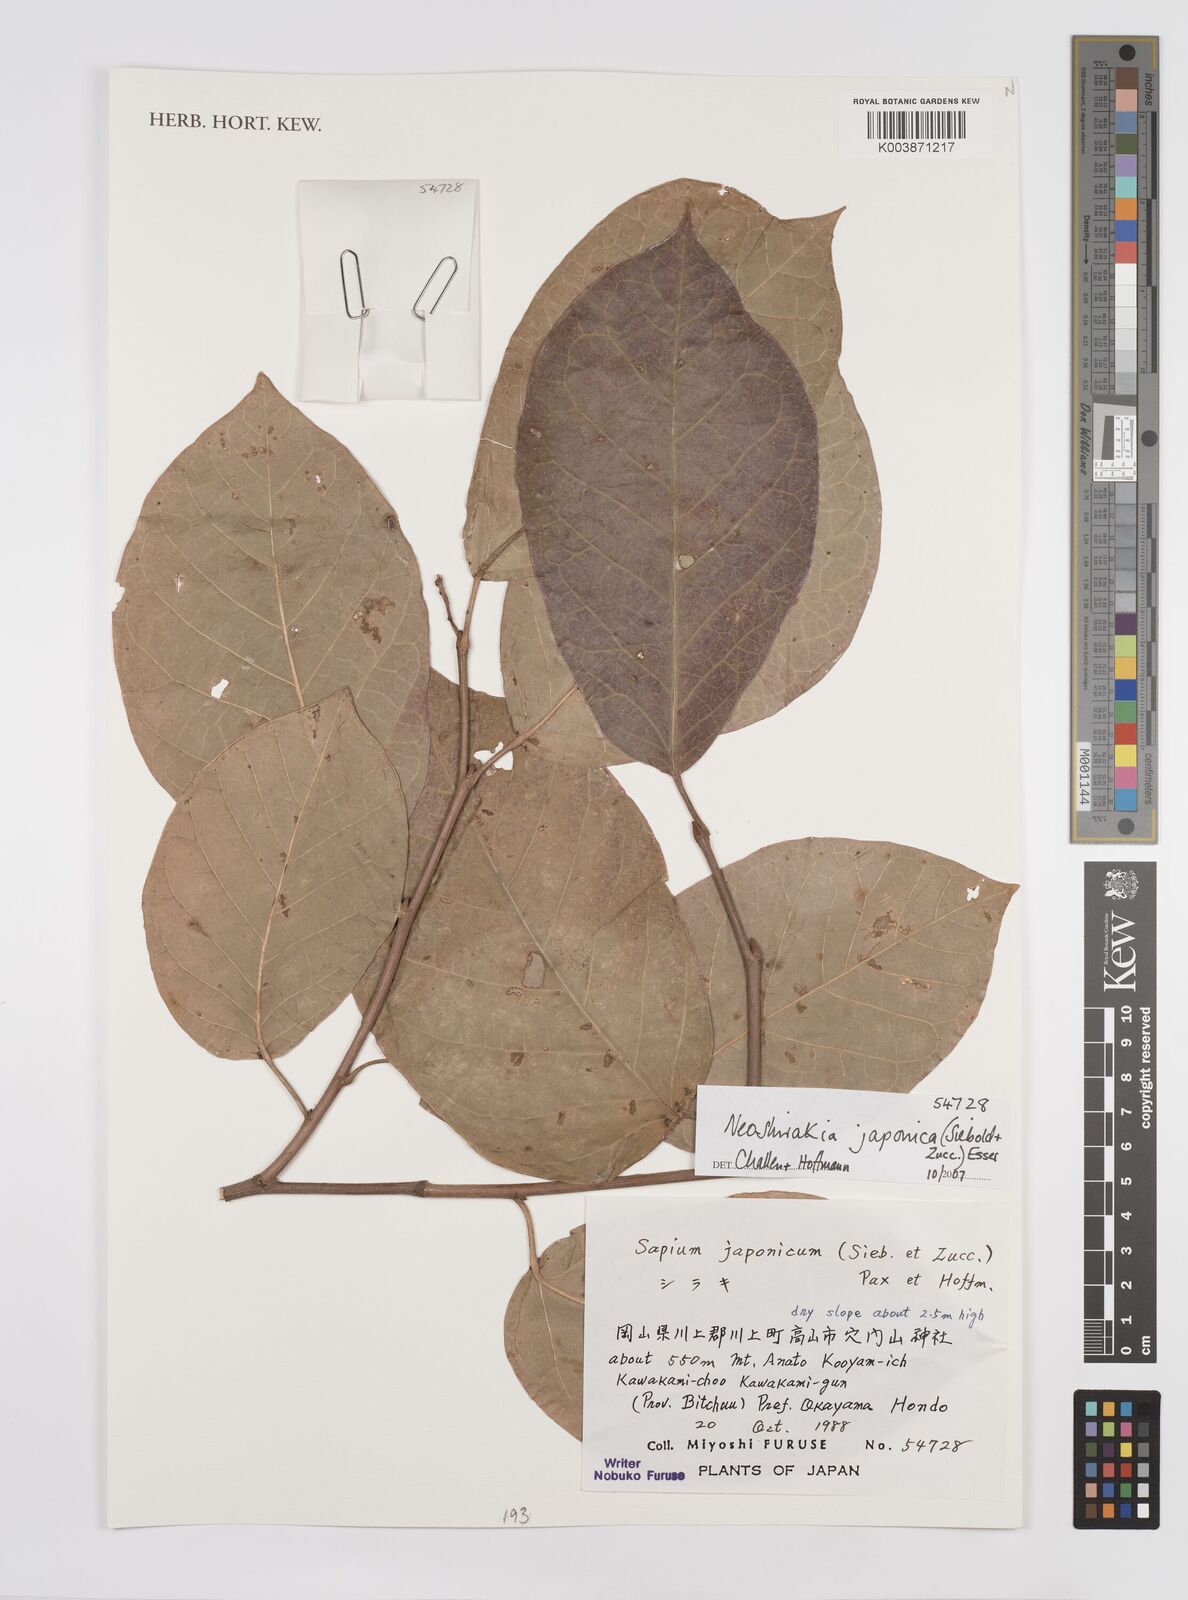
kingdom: Plantae
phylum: Tracheophyta
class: Magnoliopsida
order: Malpighiales
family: Euphorbiaceae
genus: Neoshirakia
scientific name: Neoshirakia japonica
